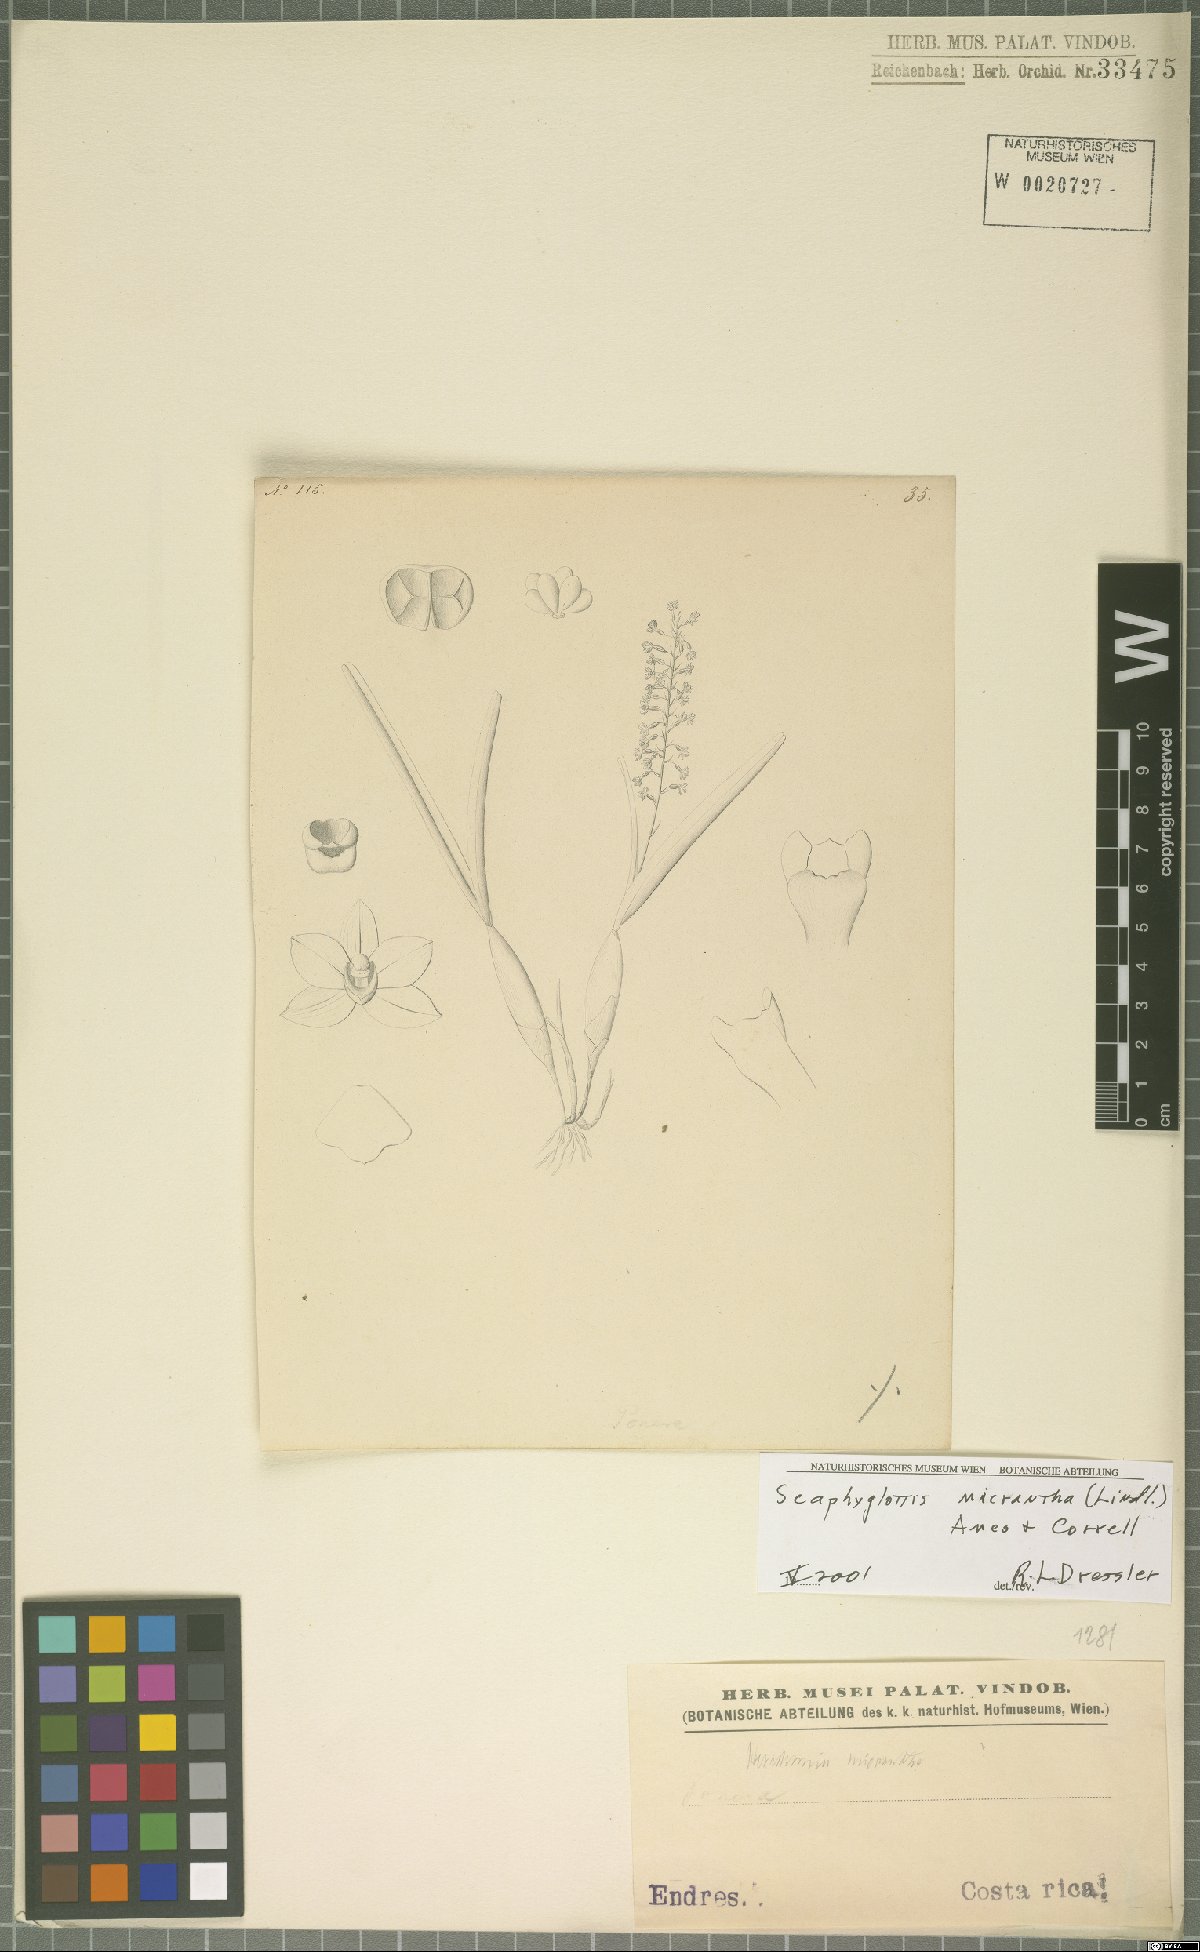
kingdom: Plantae
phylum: Tracheophyta
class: Liliopsida
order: Asparagales
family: Orchidaceae
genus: Scaphyglottis
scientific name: Scaphyglottis micrantha
